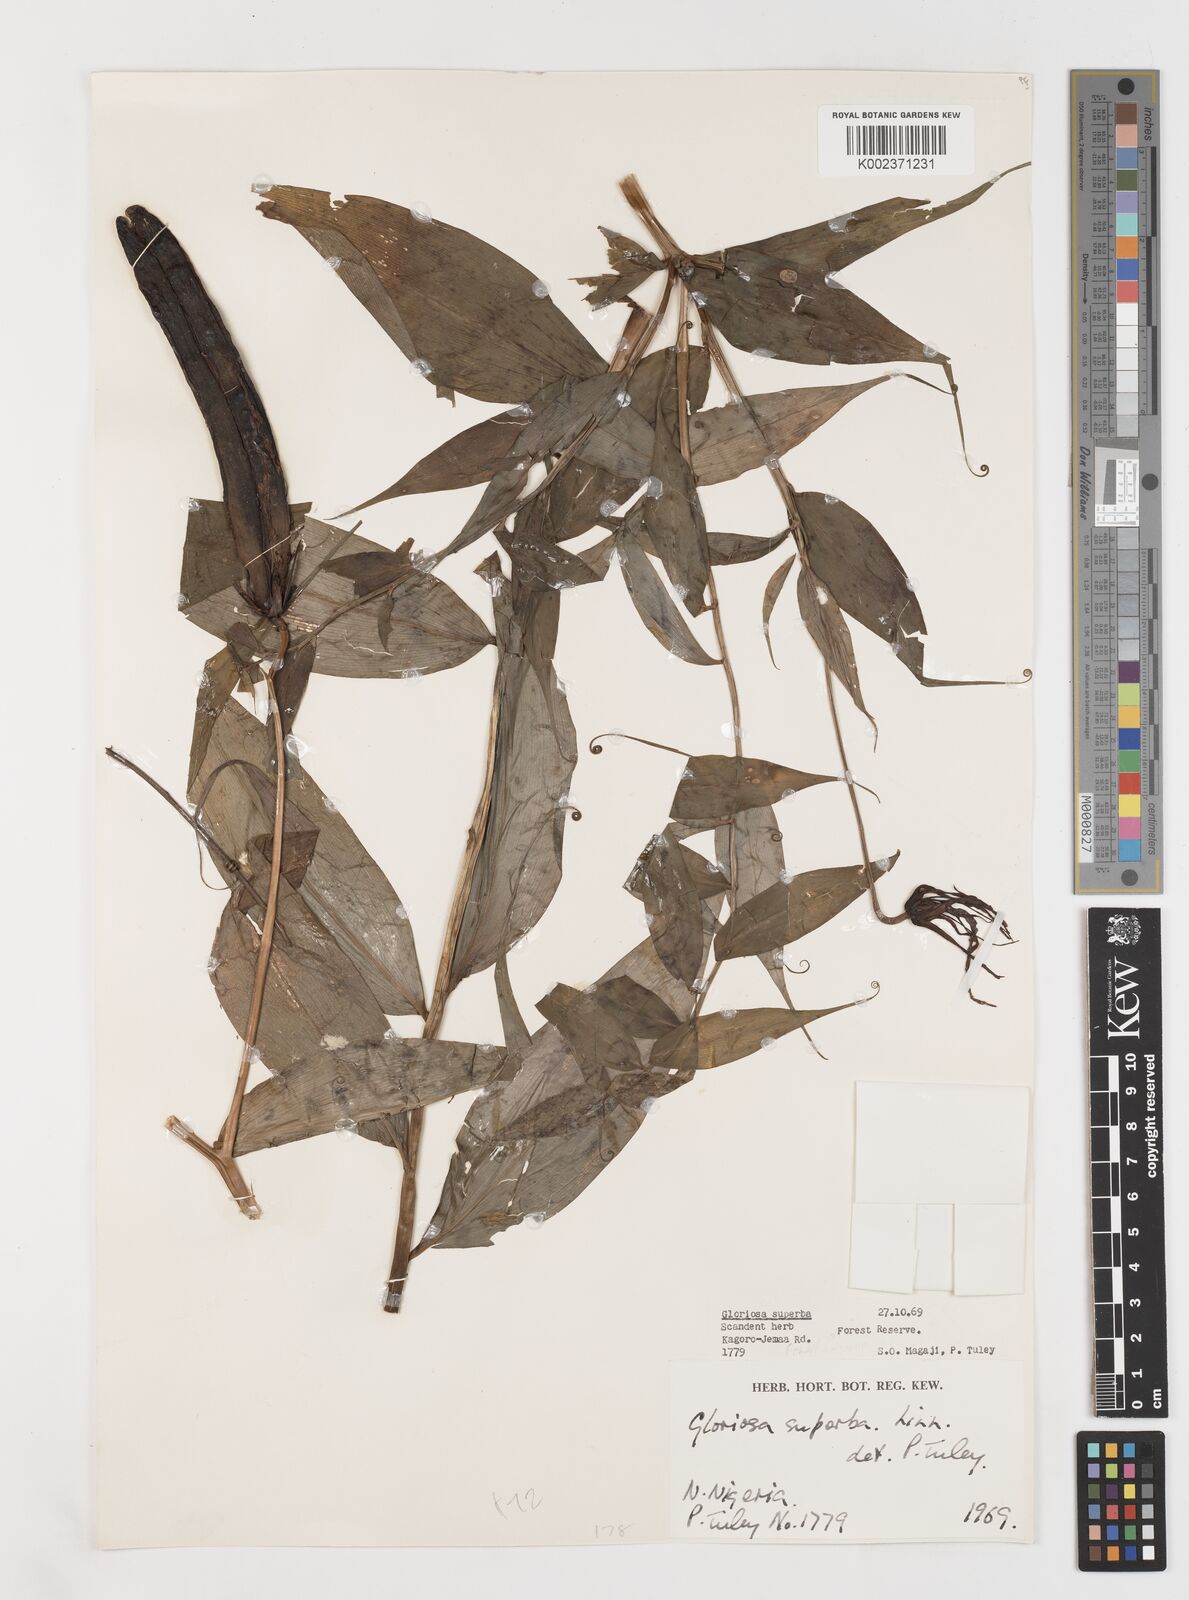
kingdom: Plantae
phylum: Tracheophyta
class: Liliopsida
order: Liliales
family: Colchicaceae
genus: Gloriosa
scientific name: Gloriosa superba
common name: Flame lily
